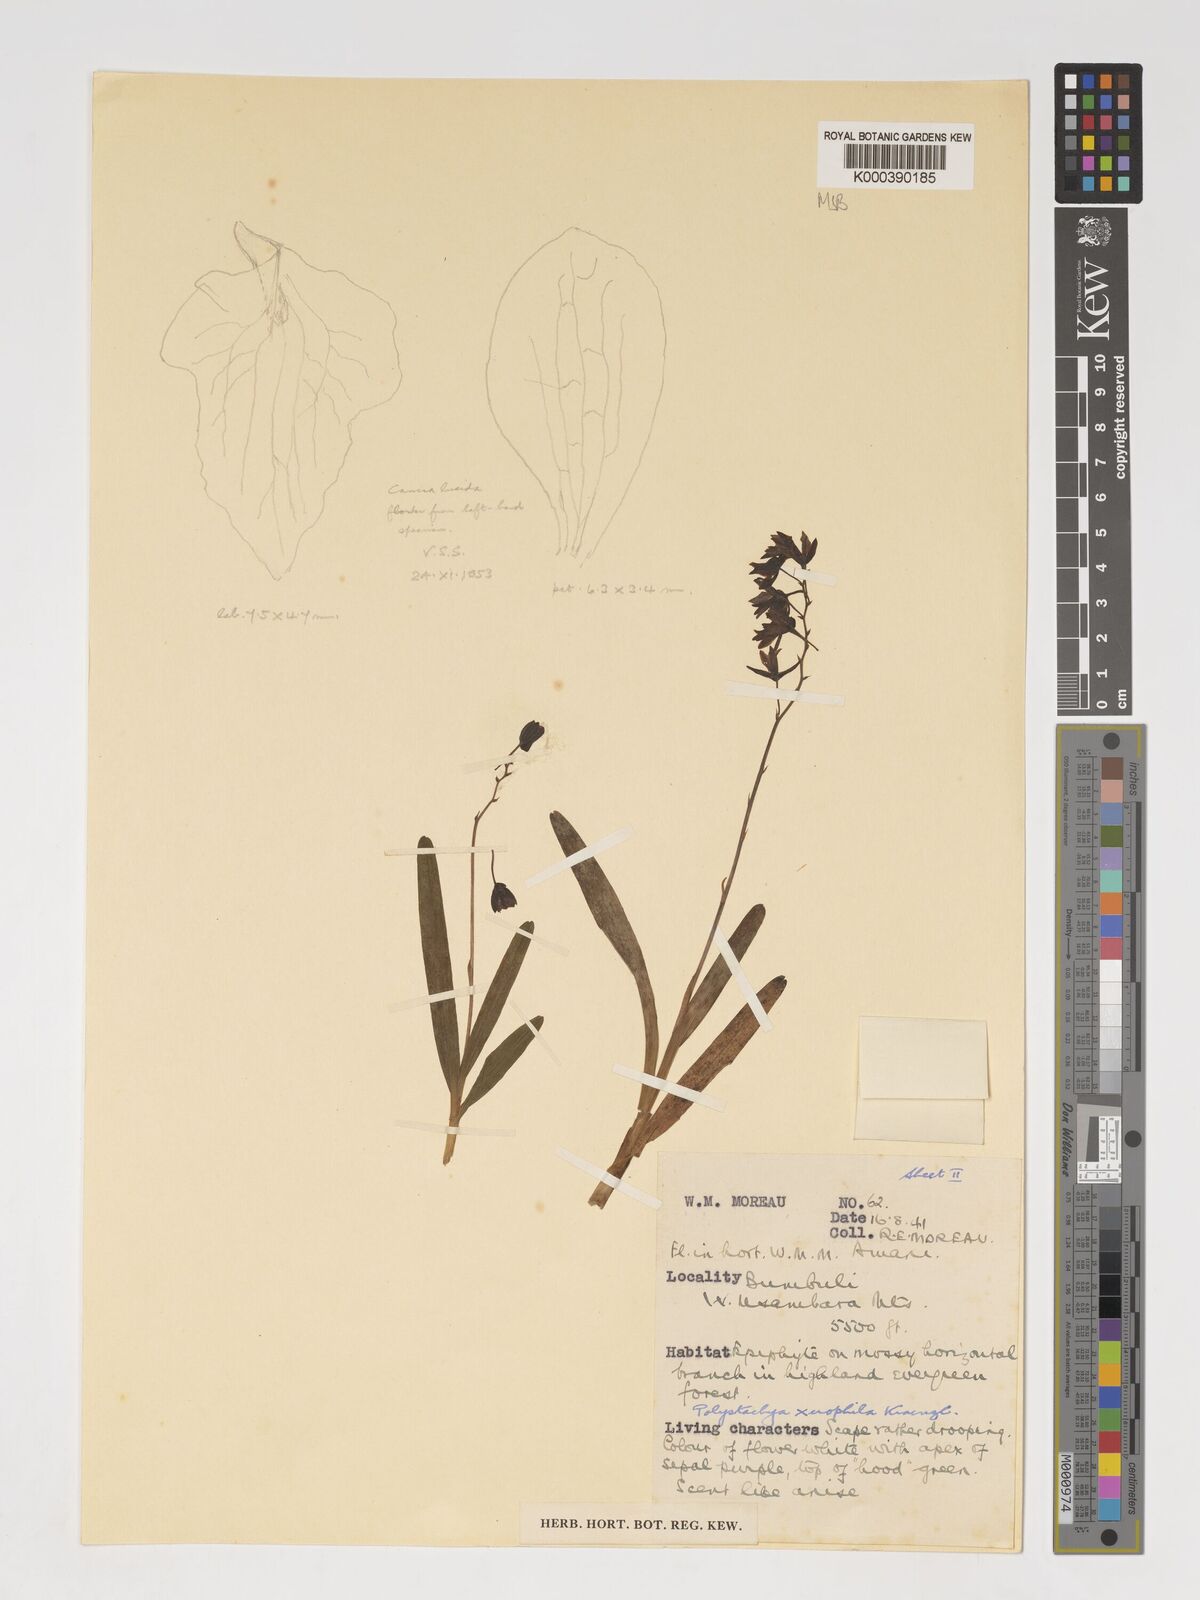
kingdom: Plantae
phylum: Tracheophyta
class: Liliopsida
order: Asparagales
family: Orchidaceae
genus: Polystachya
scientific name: Polystachya xerophila
